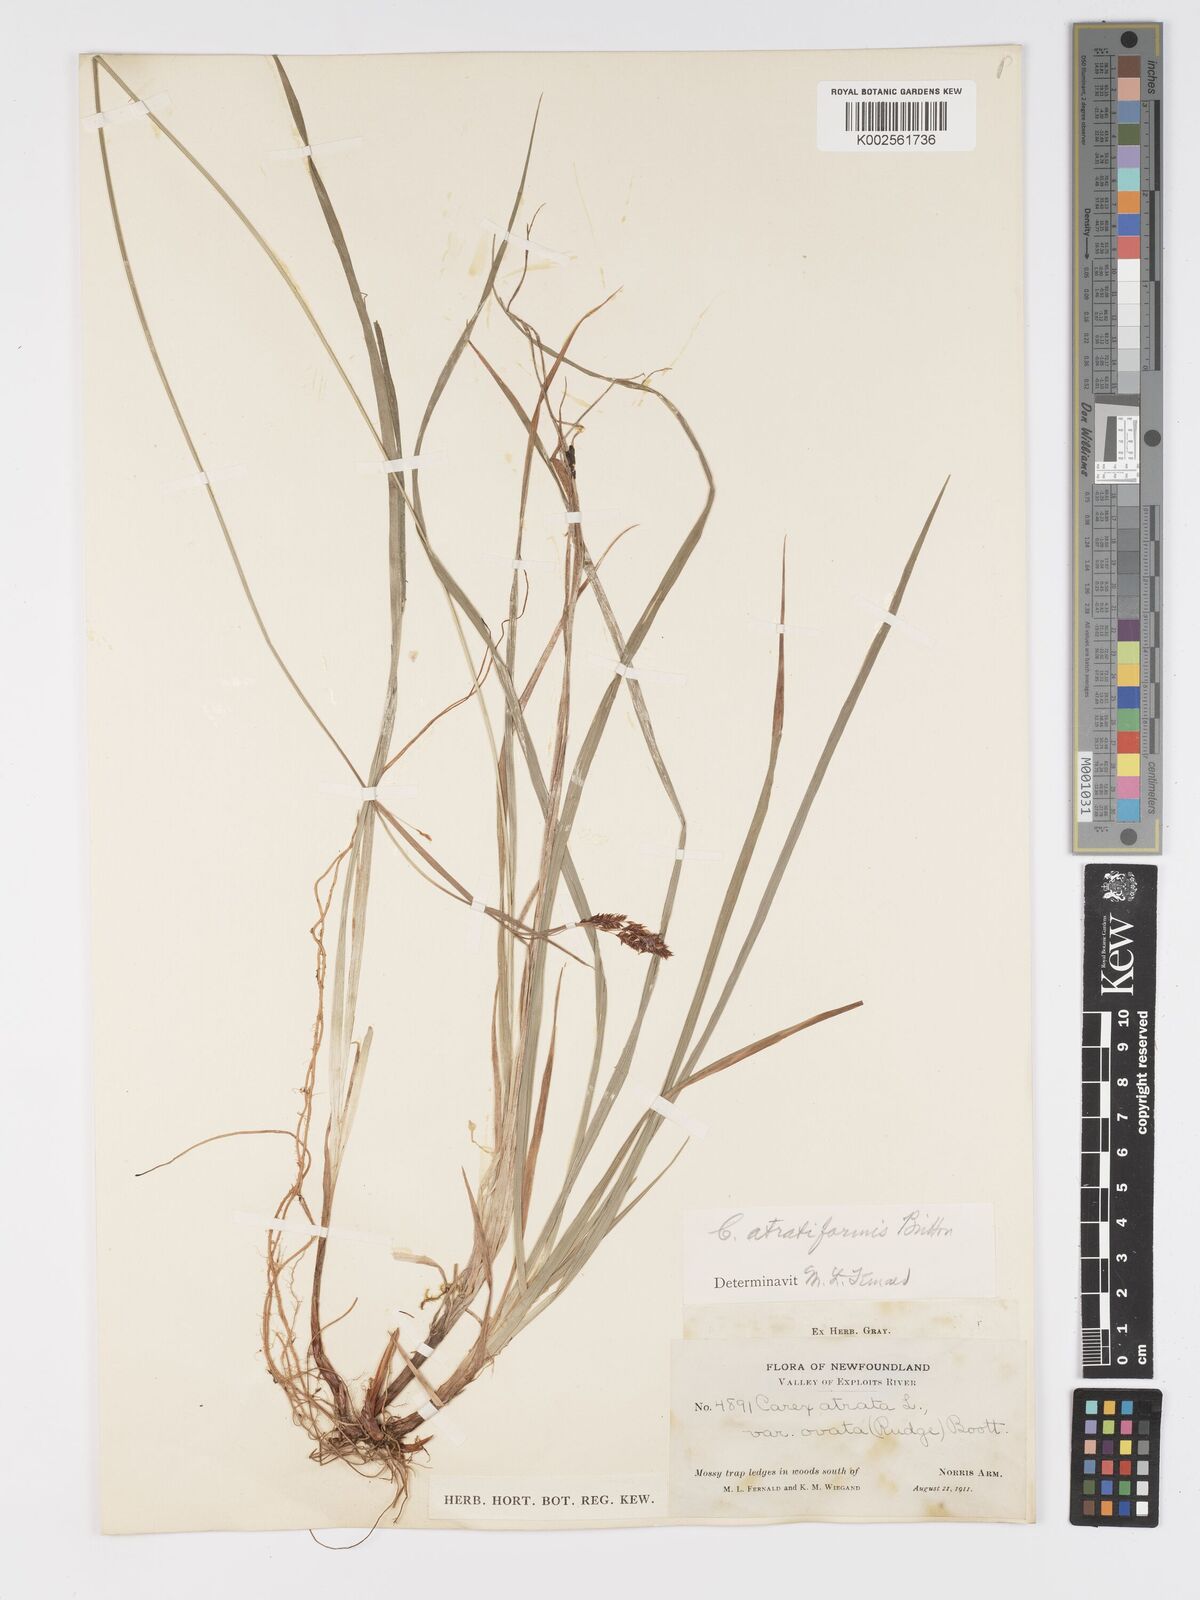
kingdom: Plantae
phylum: Tracheophyta
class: Liliopsida
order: Poales
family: Cyperaceae
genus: Carex
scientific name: Carex atratiformis
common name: Black sedge
